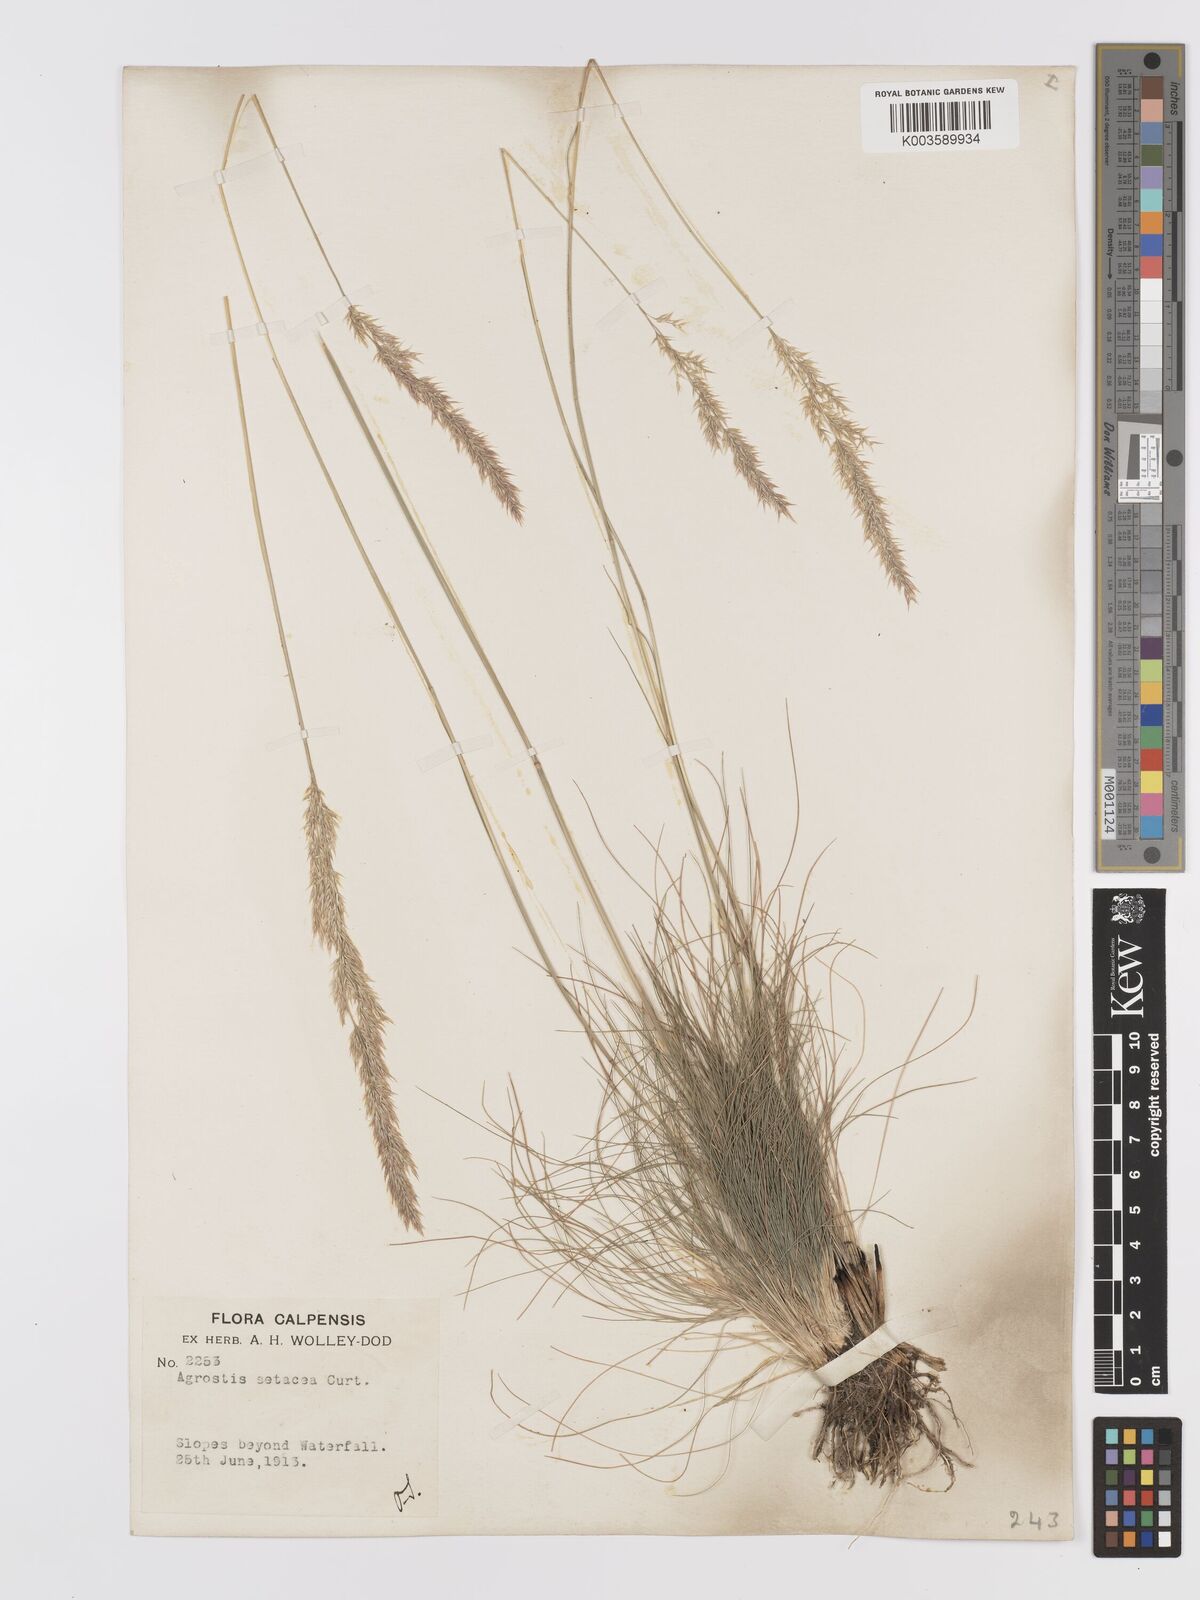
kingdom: Plantae
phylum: Tracheophyta
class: Liliopsida
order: Poales
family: Poaceae
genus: Alpagrostis
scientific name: Alpagrostis setacea
